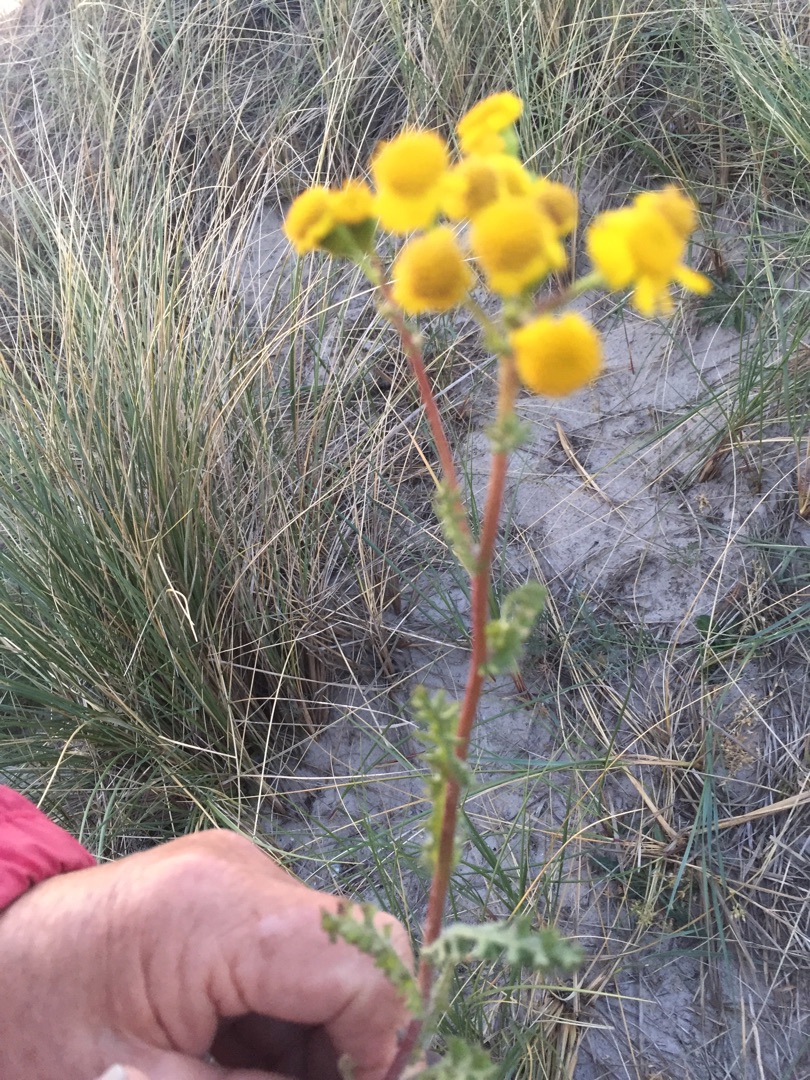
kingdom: Plantae
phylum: Tracheophyta
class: Magnoliopsida
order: Asterales
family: Asteraceae
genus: Senecio
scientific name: Senecio leucanthemifolius
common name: Vår-brandbæger
